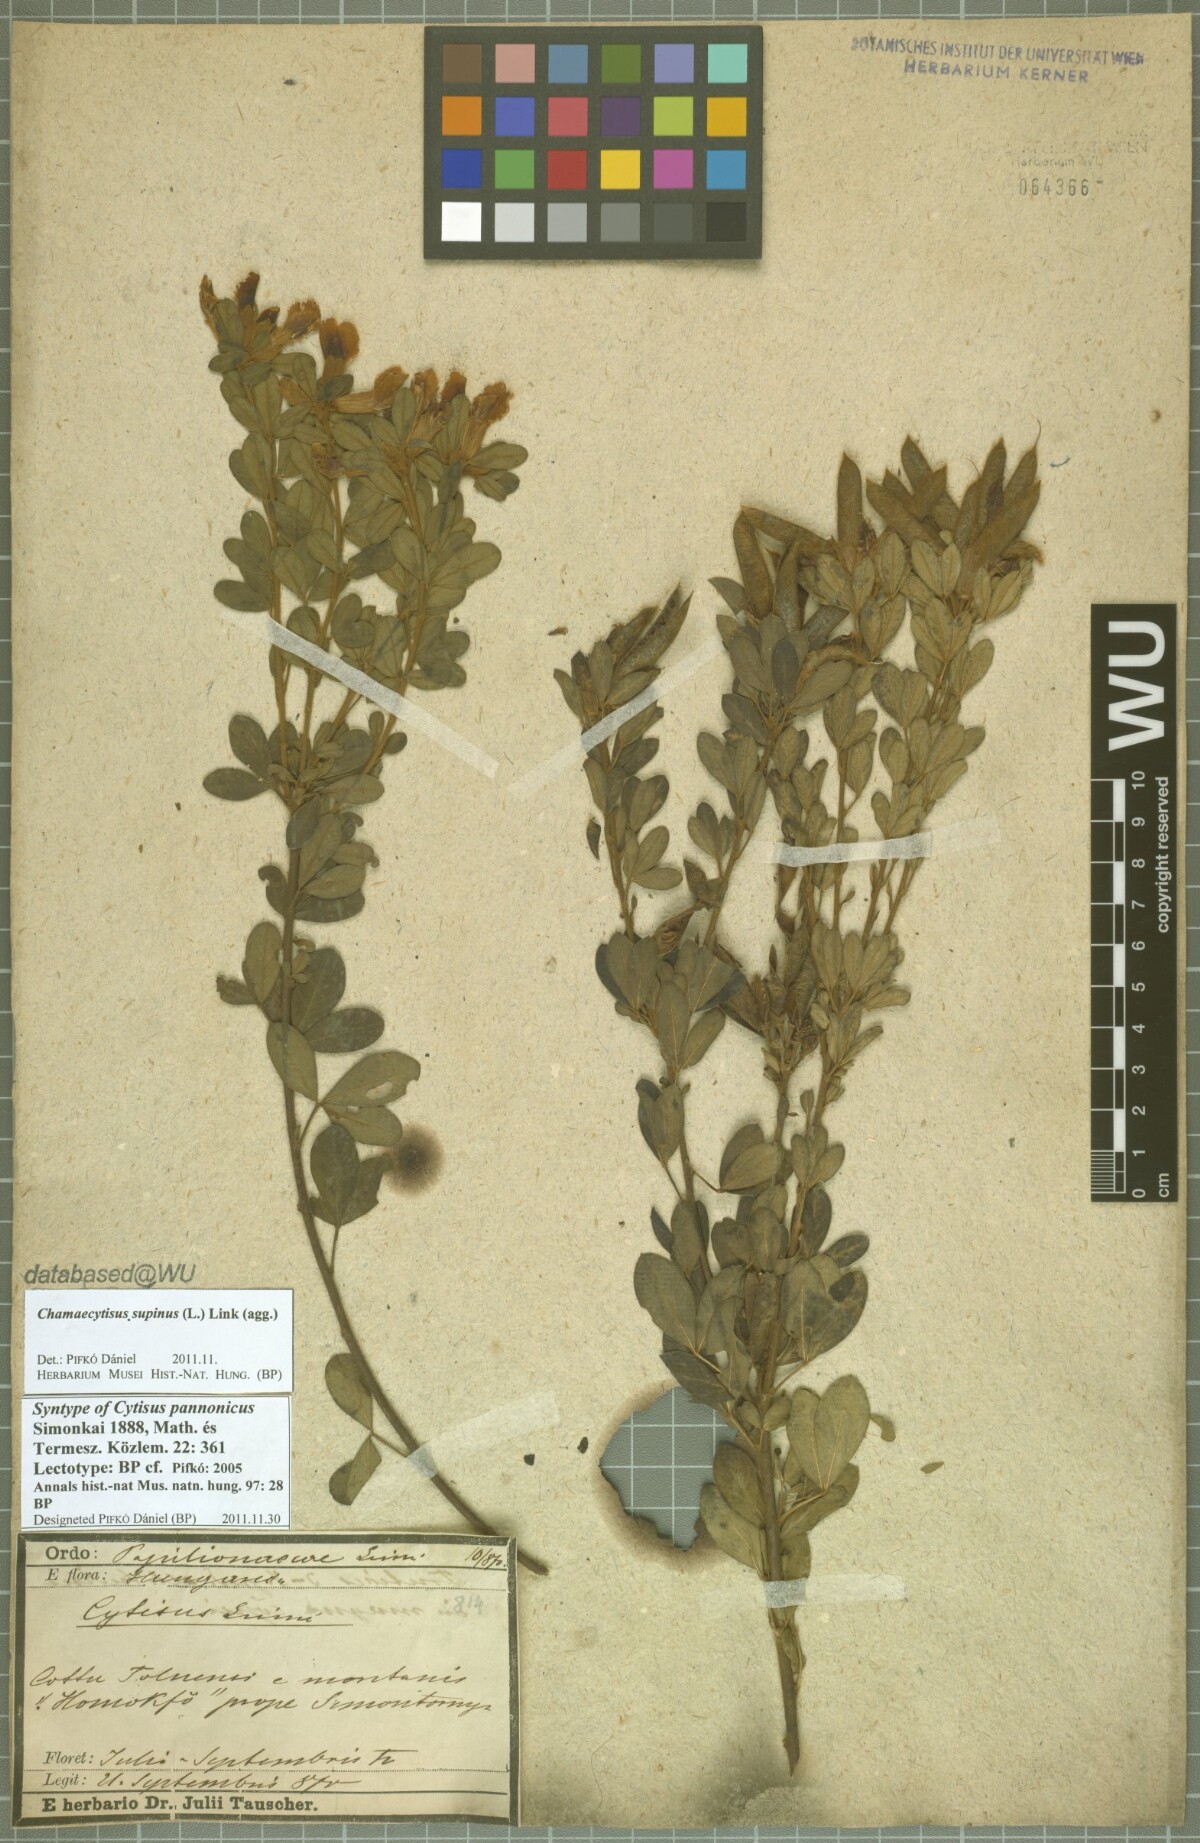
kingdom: Plantae
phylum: Tracheophyta
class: Magnoliopsida
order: Fabales
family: Fabaceae
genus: Chamaecytisus
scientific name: Chamaecytisus supinus
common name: Clustered broom
